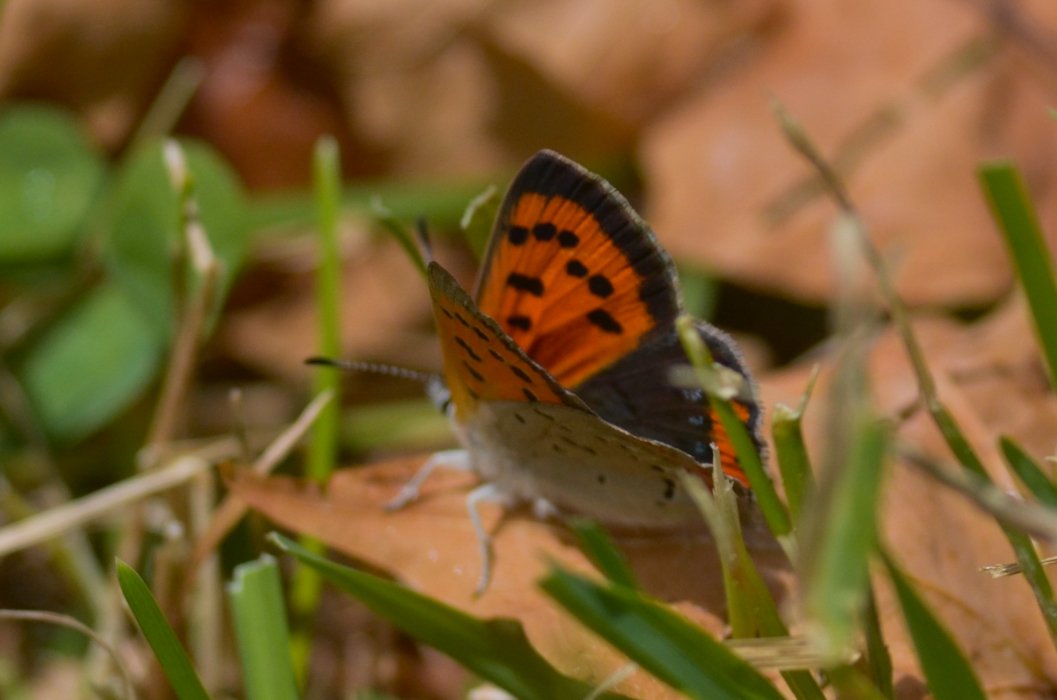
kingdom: Animalia
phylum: Arthropoda
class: Insecta
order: Lepidoptera
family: Lycaenidae
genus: Lycaena
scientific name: Lycaena phlaeas
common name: American Copper
